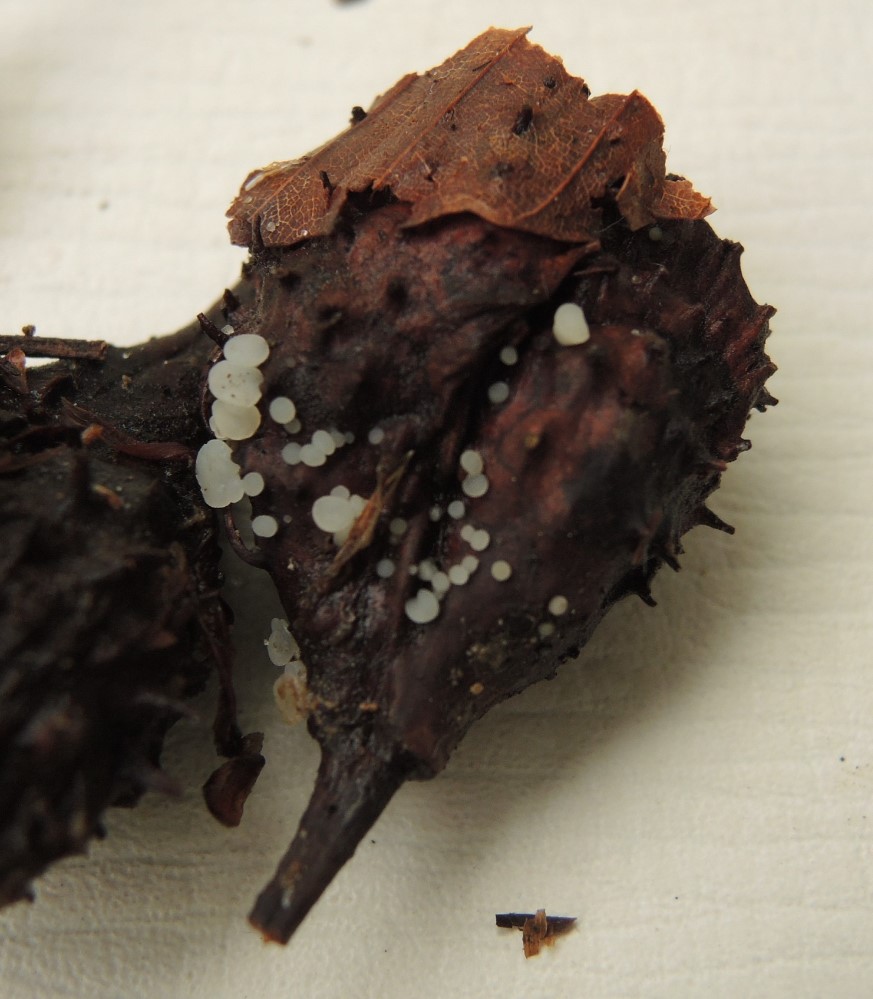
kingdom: Fungi
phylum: Ascomycota
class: Leotiomycetes
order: Helotiales
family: Helotiaceae
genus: Hymenoscyphus
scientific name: Hymenoscyphus fagineus
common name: vellugtende stilkskive
